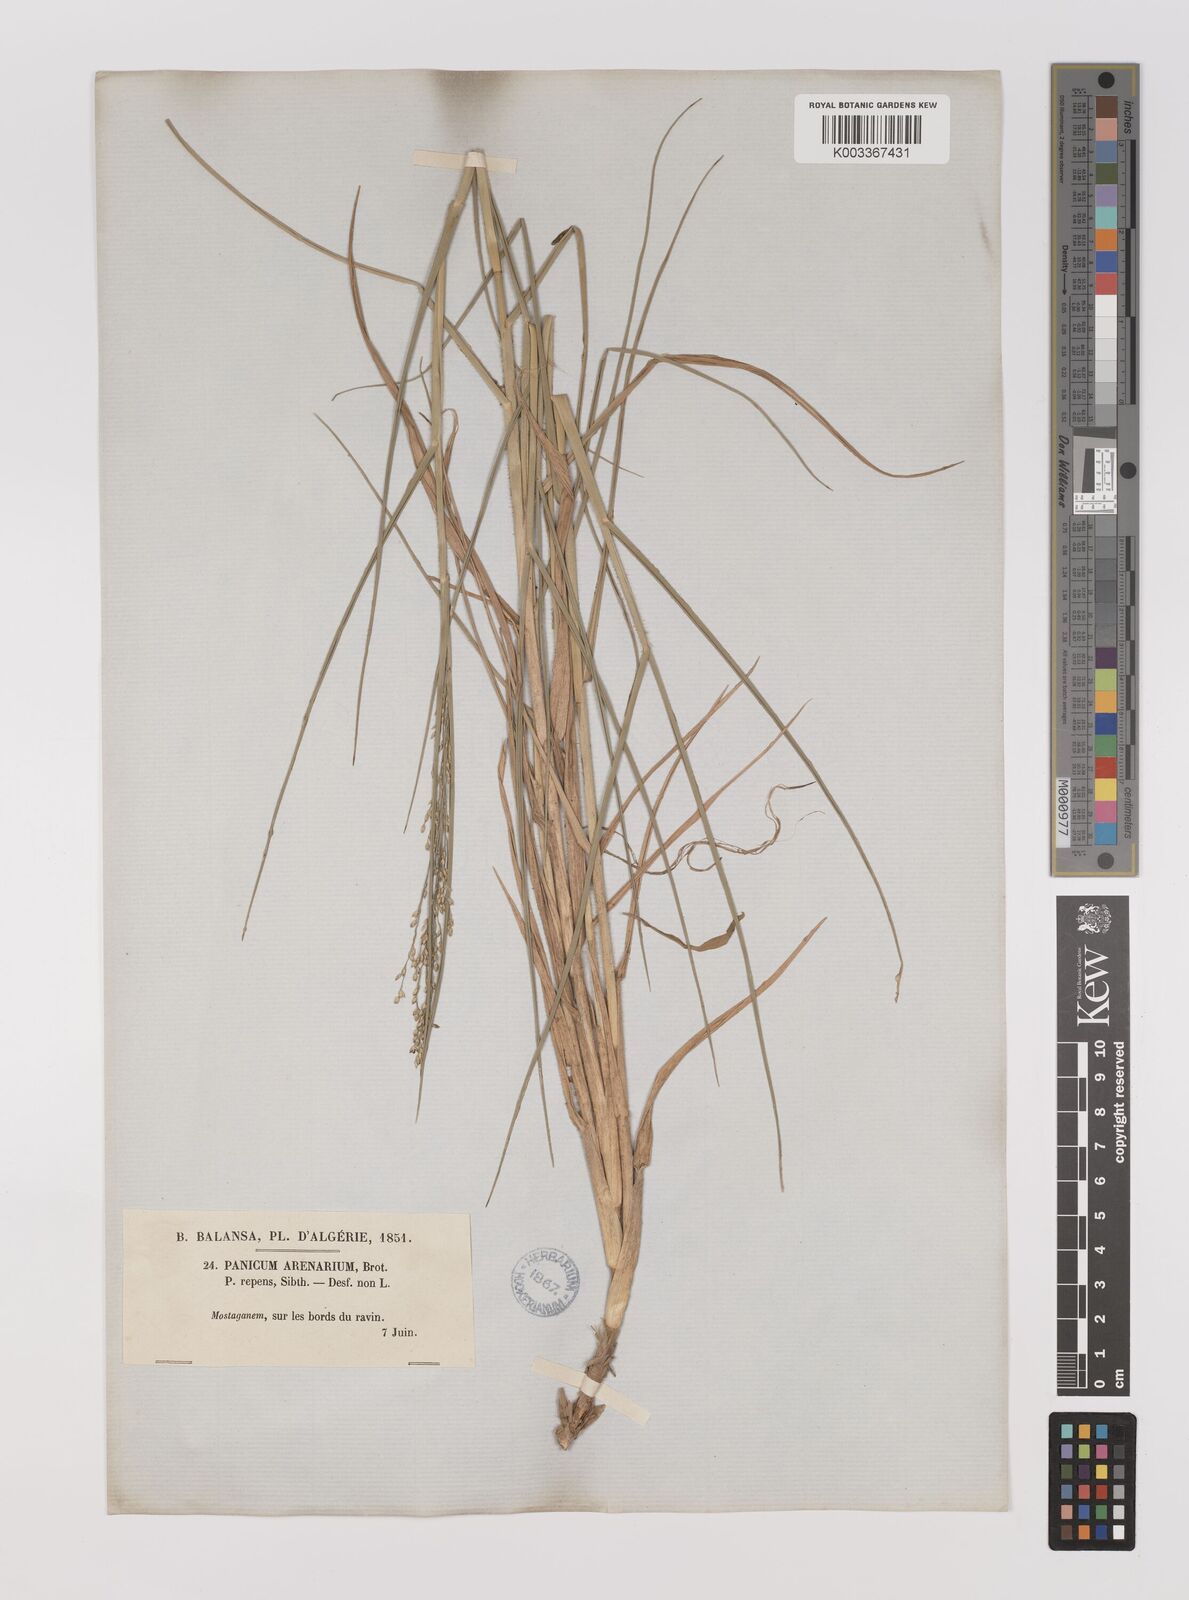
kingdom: Plantae
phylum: Tracheophyta
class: Liliopsida
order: Poales
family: Poaceae
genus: Panicum
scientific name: Panicum repens
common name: Torpedo grass
